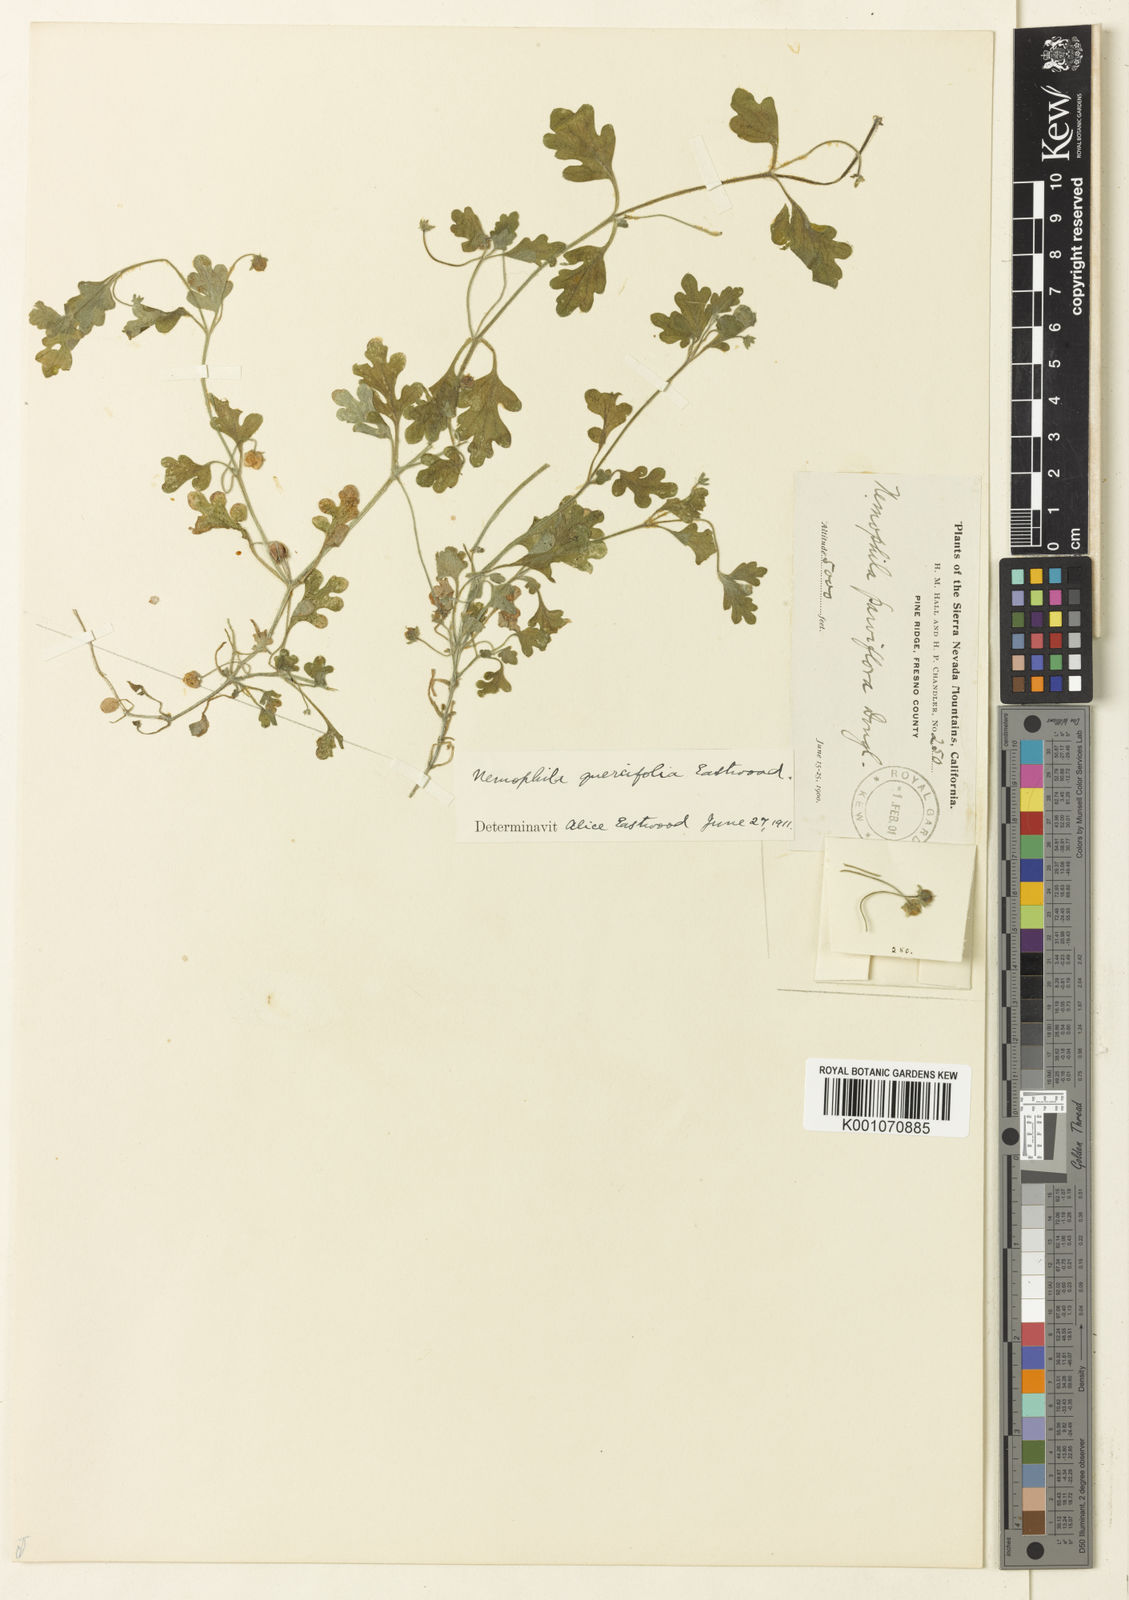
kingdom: Plantae
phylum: Tracheophyta
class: Magnoliopsida
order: Boraginales
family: Hydrophyllaceae
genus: Nemophila
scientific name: Nemophila parviflora
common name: Small-flowered baby-blue-eyes
